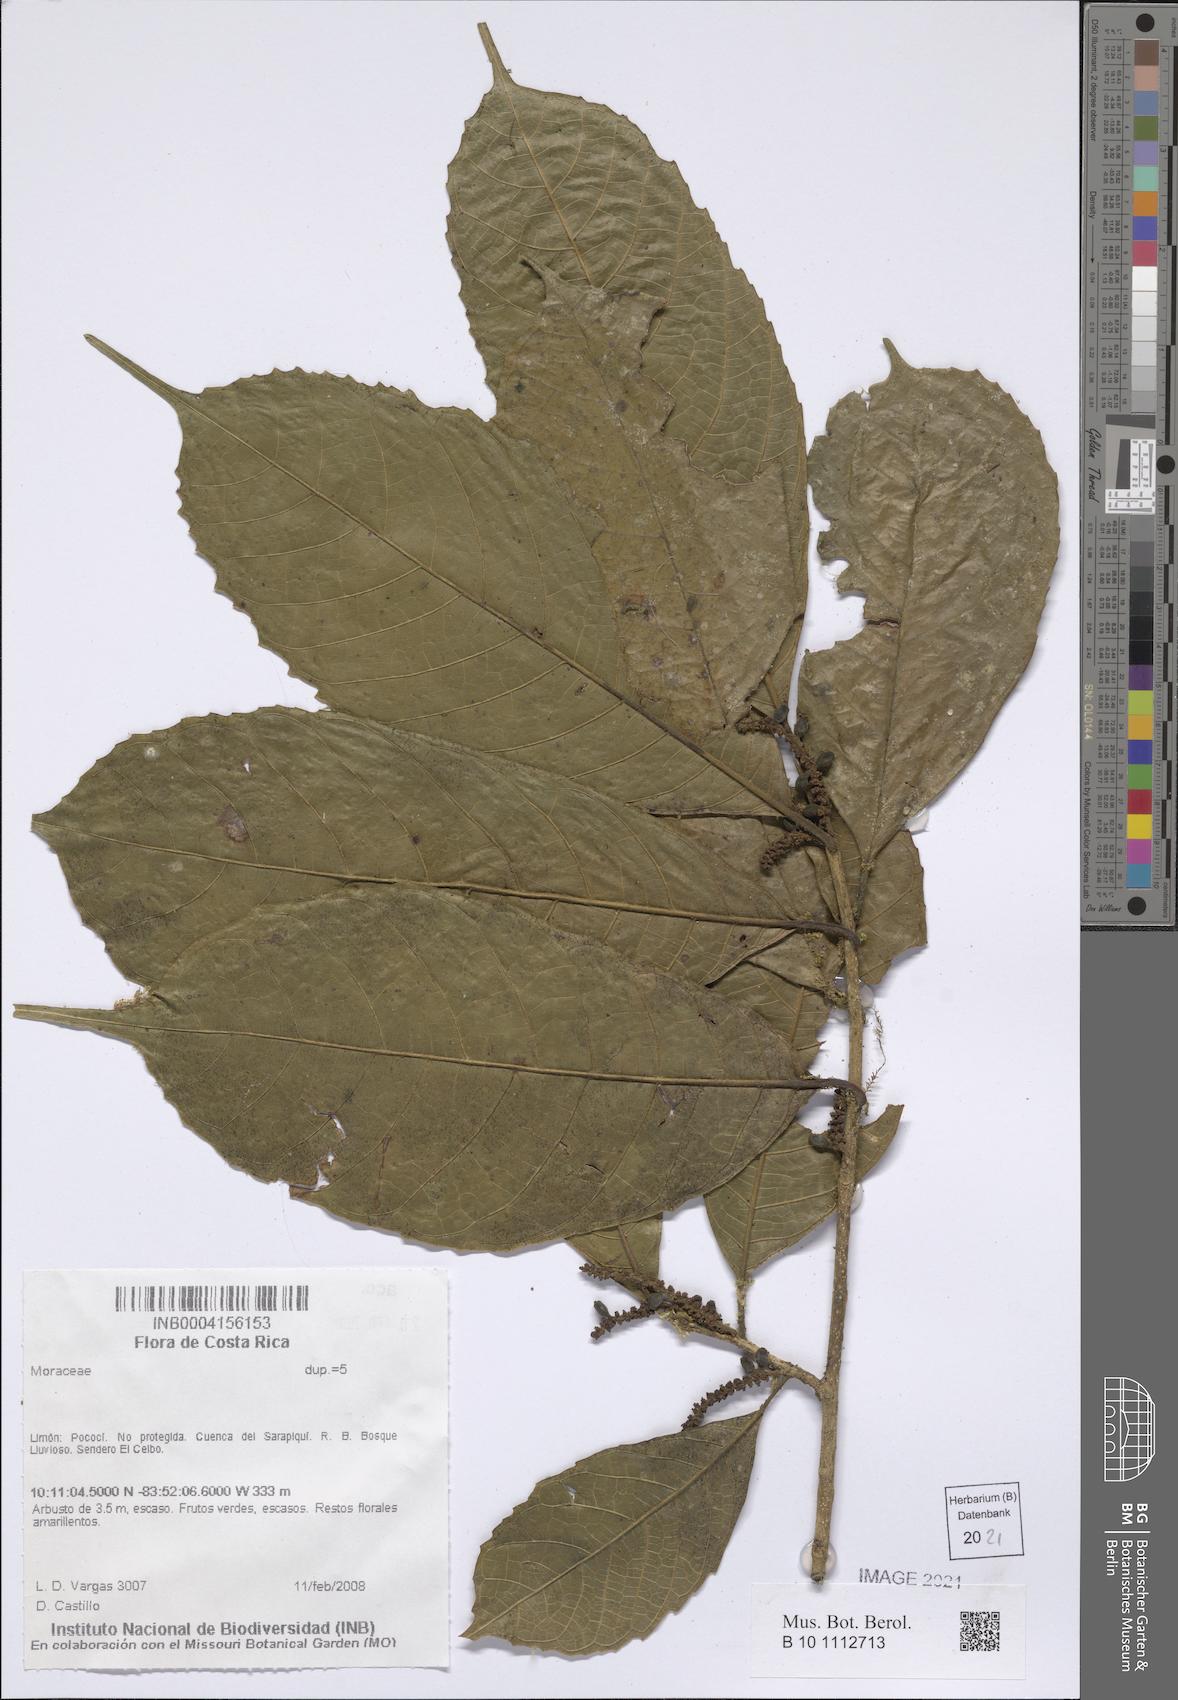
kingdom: Plantae
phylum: Tracheophyta
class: Magnoliopsida
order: Rosales
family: Moraceae
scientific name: Moraceae
